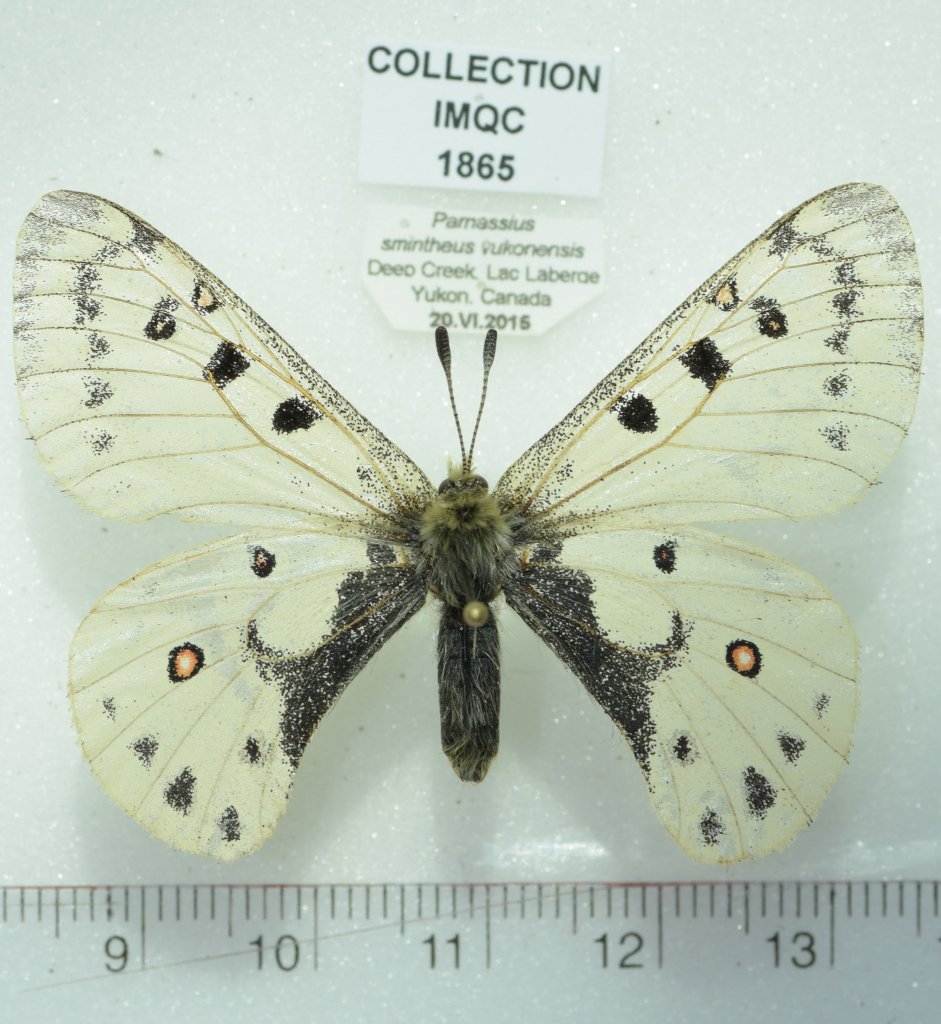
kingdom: Animalia
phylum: Arthropoda
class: Insecta
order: Lepidoptera
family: Papilionidae
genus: Parnassius
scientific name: Parnassius smintheus
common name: Rocky Mountain Parnassian
